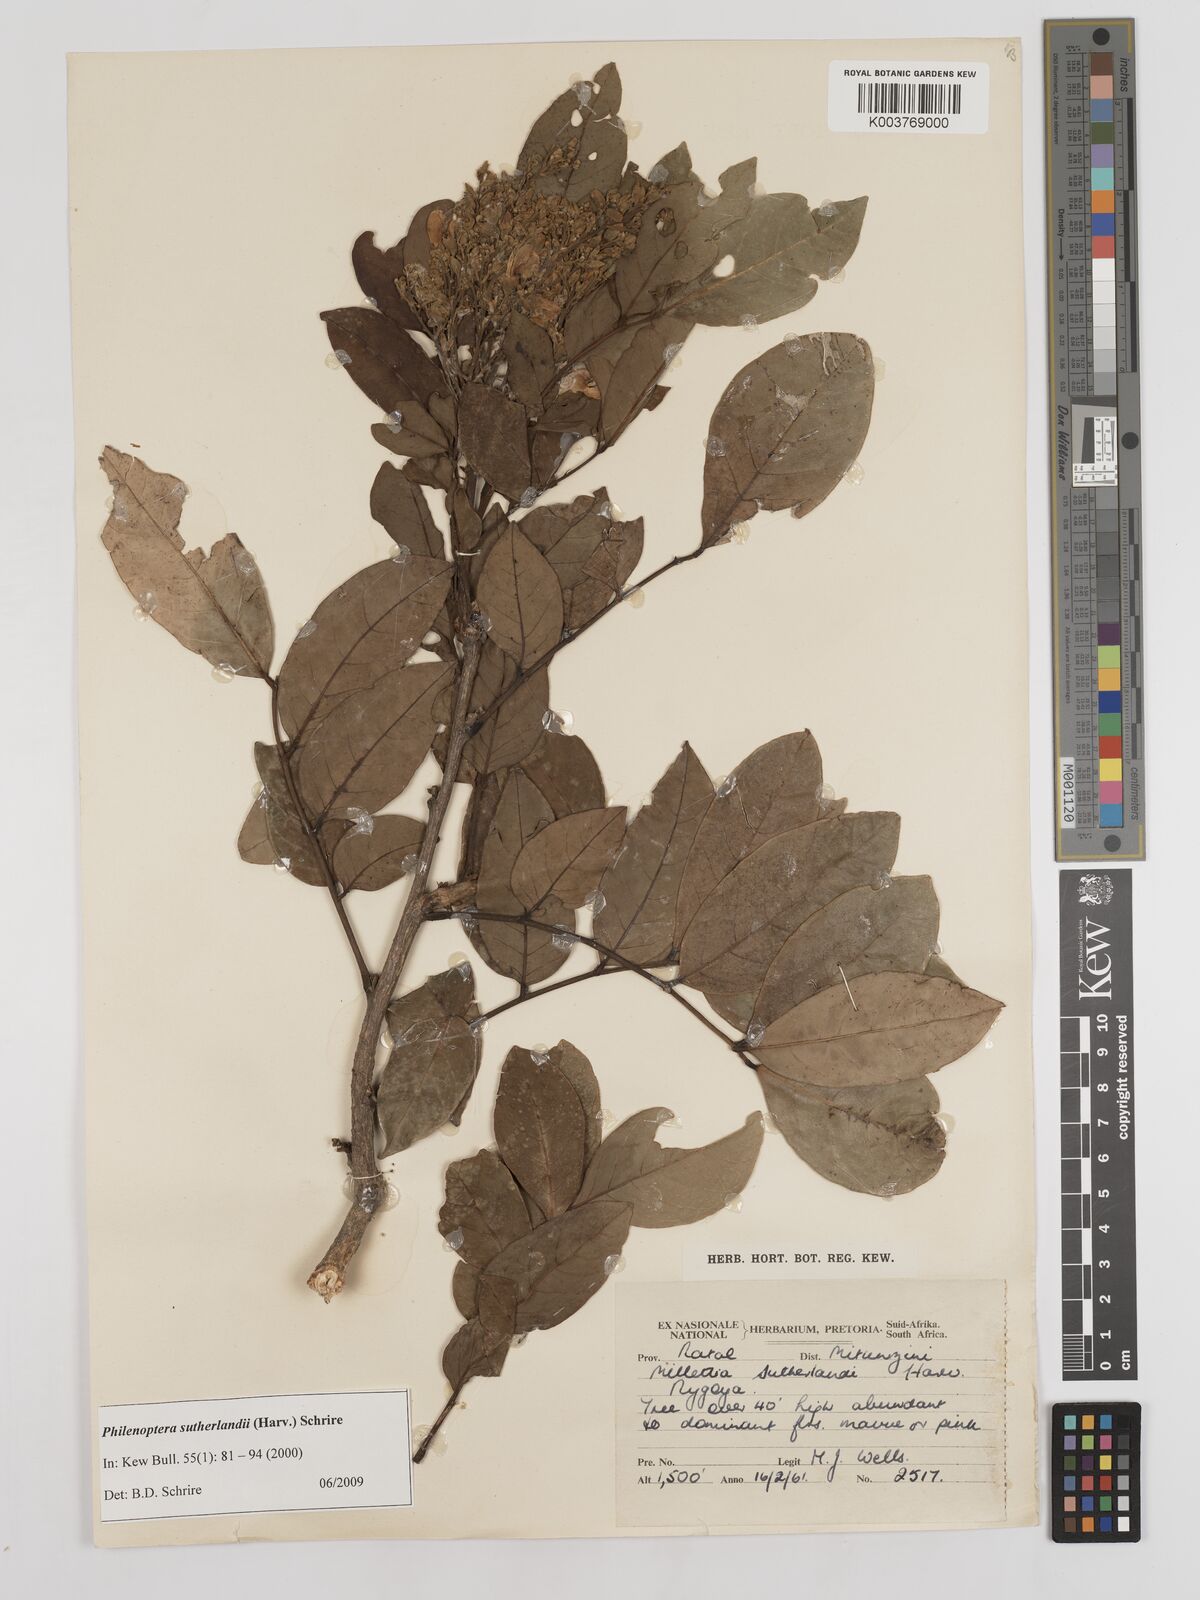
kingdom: Plantae
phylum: Tracheophyta
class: Magnoliopsida
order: Fabales
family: Fabaceae
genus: Philenoptera
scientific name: Philenoptera sutherlandii
